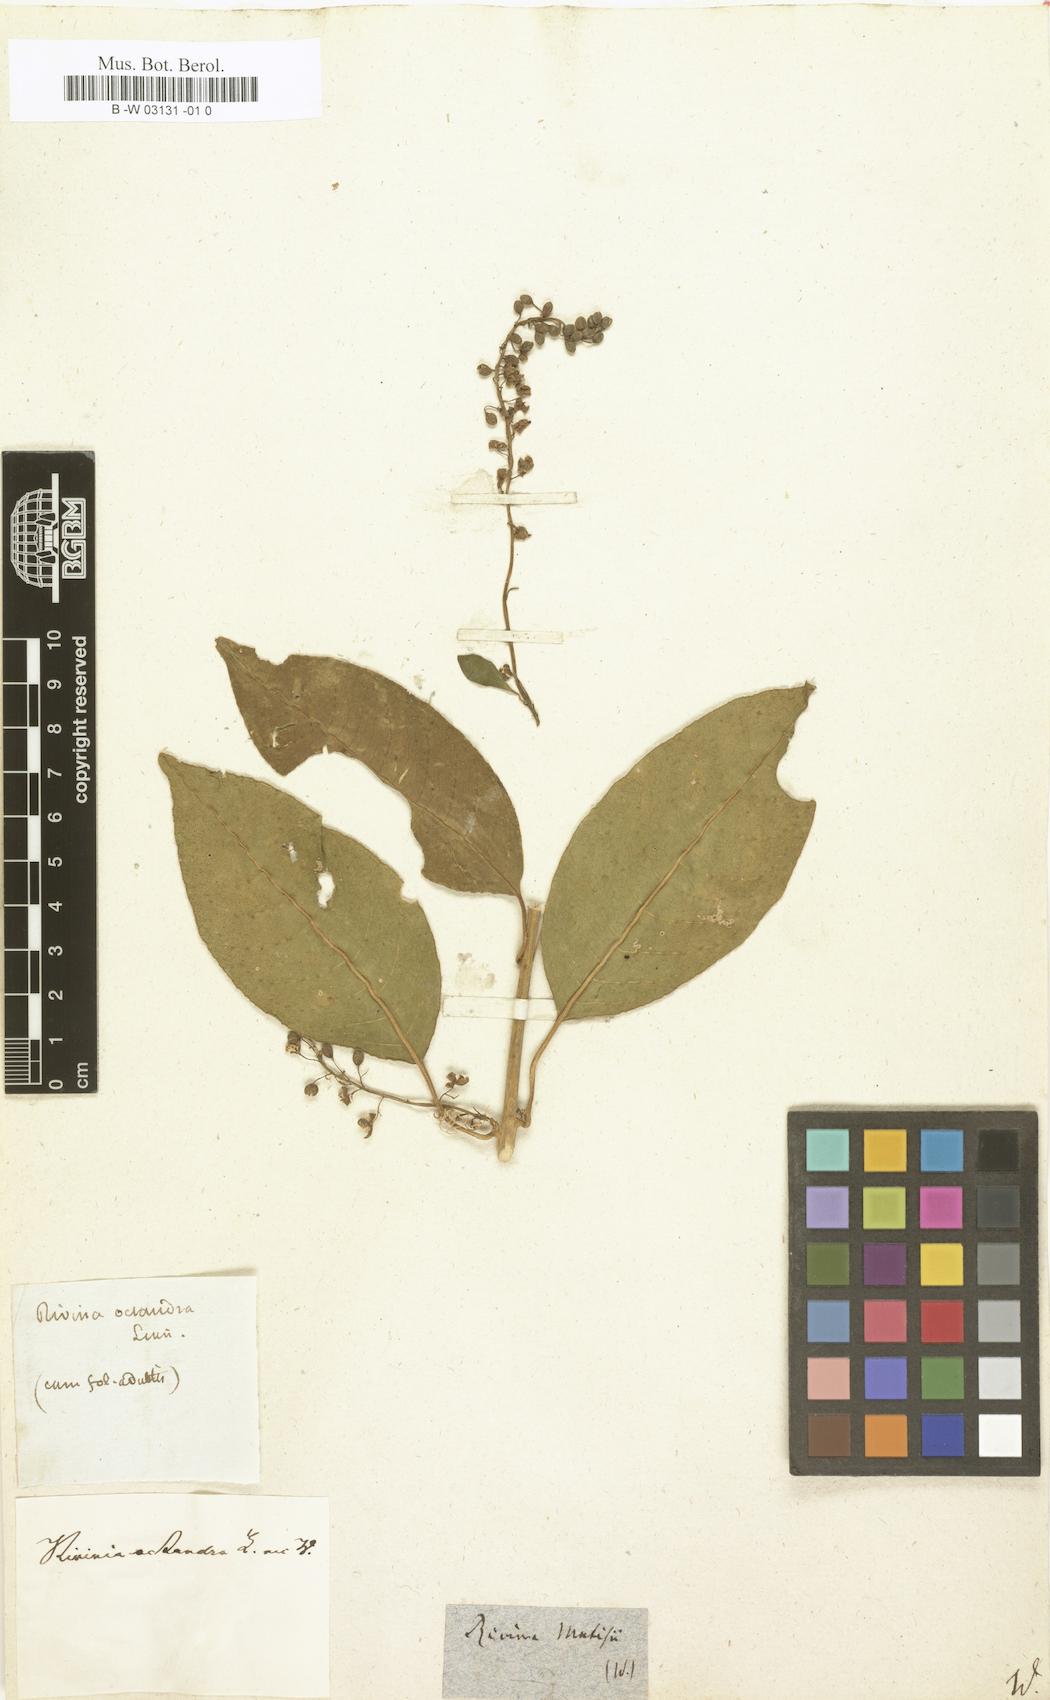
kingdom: Plantae
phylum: Tracheophyta
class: Magnoliopsida
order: Caryophyllales
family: Phytolaccaceae
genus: Trichostigma
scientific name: Trichostigma octandrum
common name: Basket wiss
